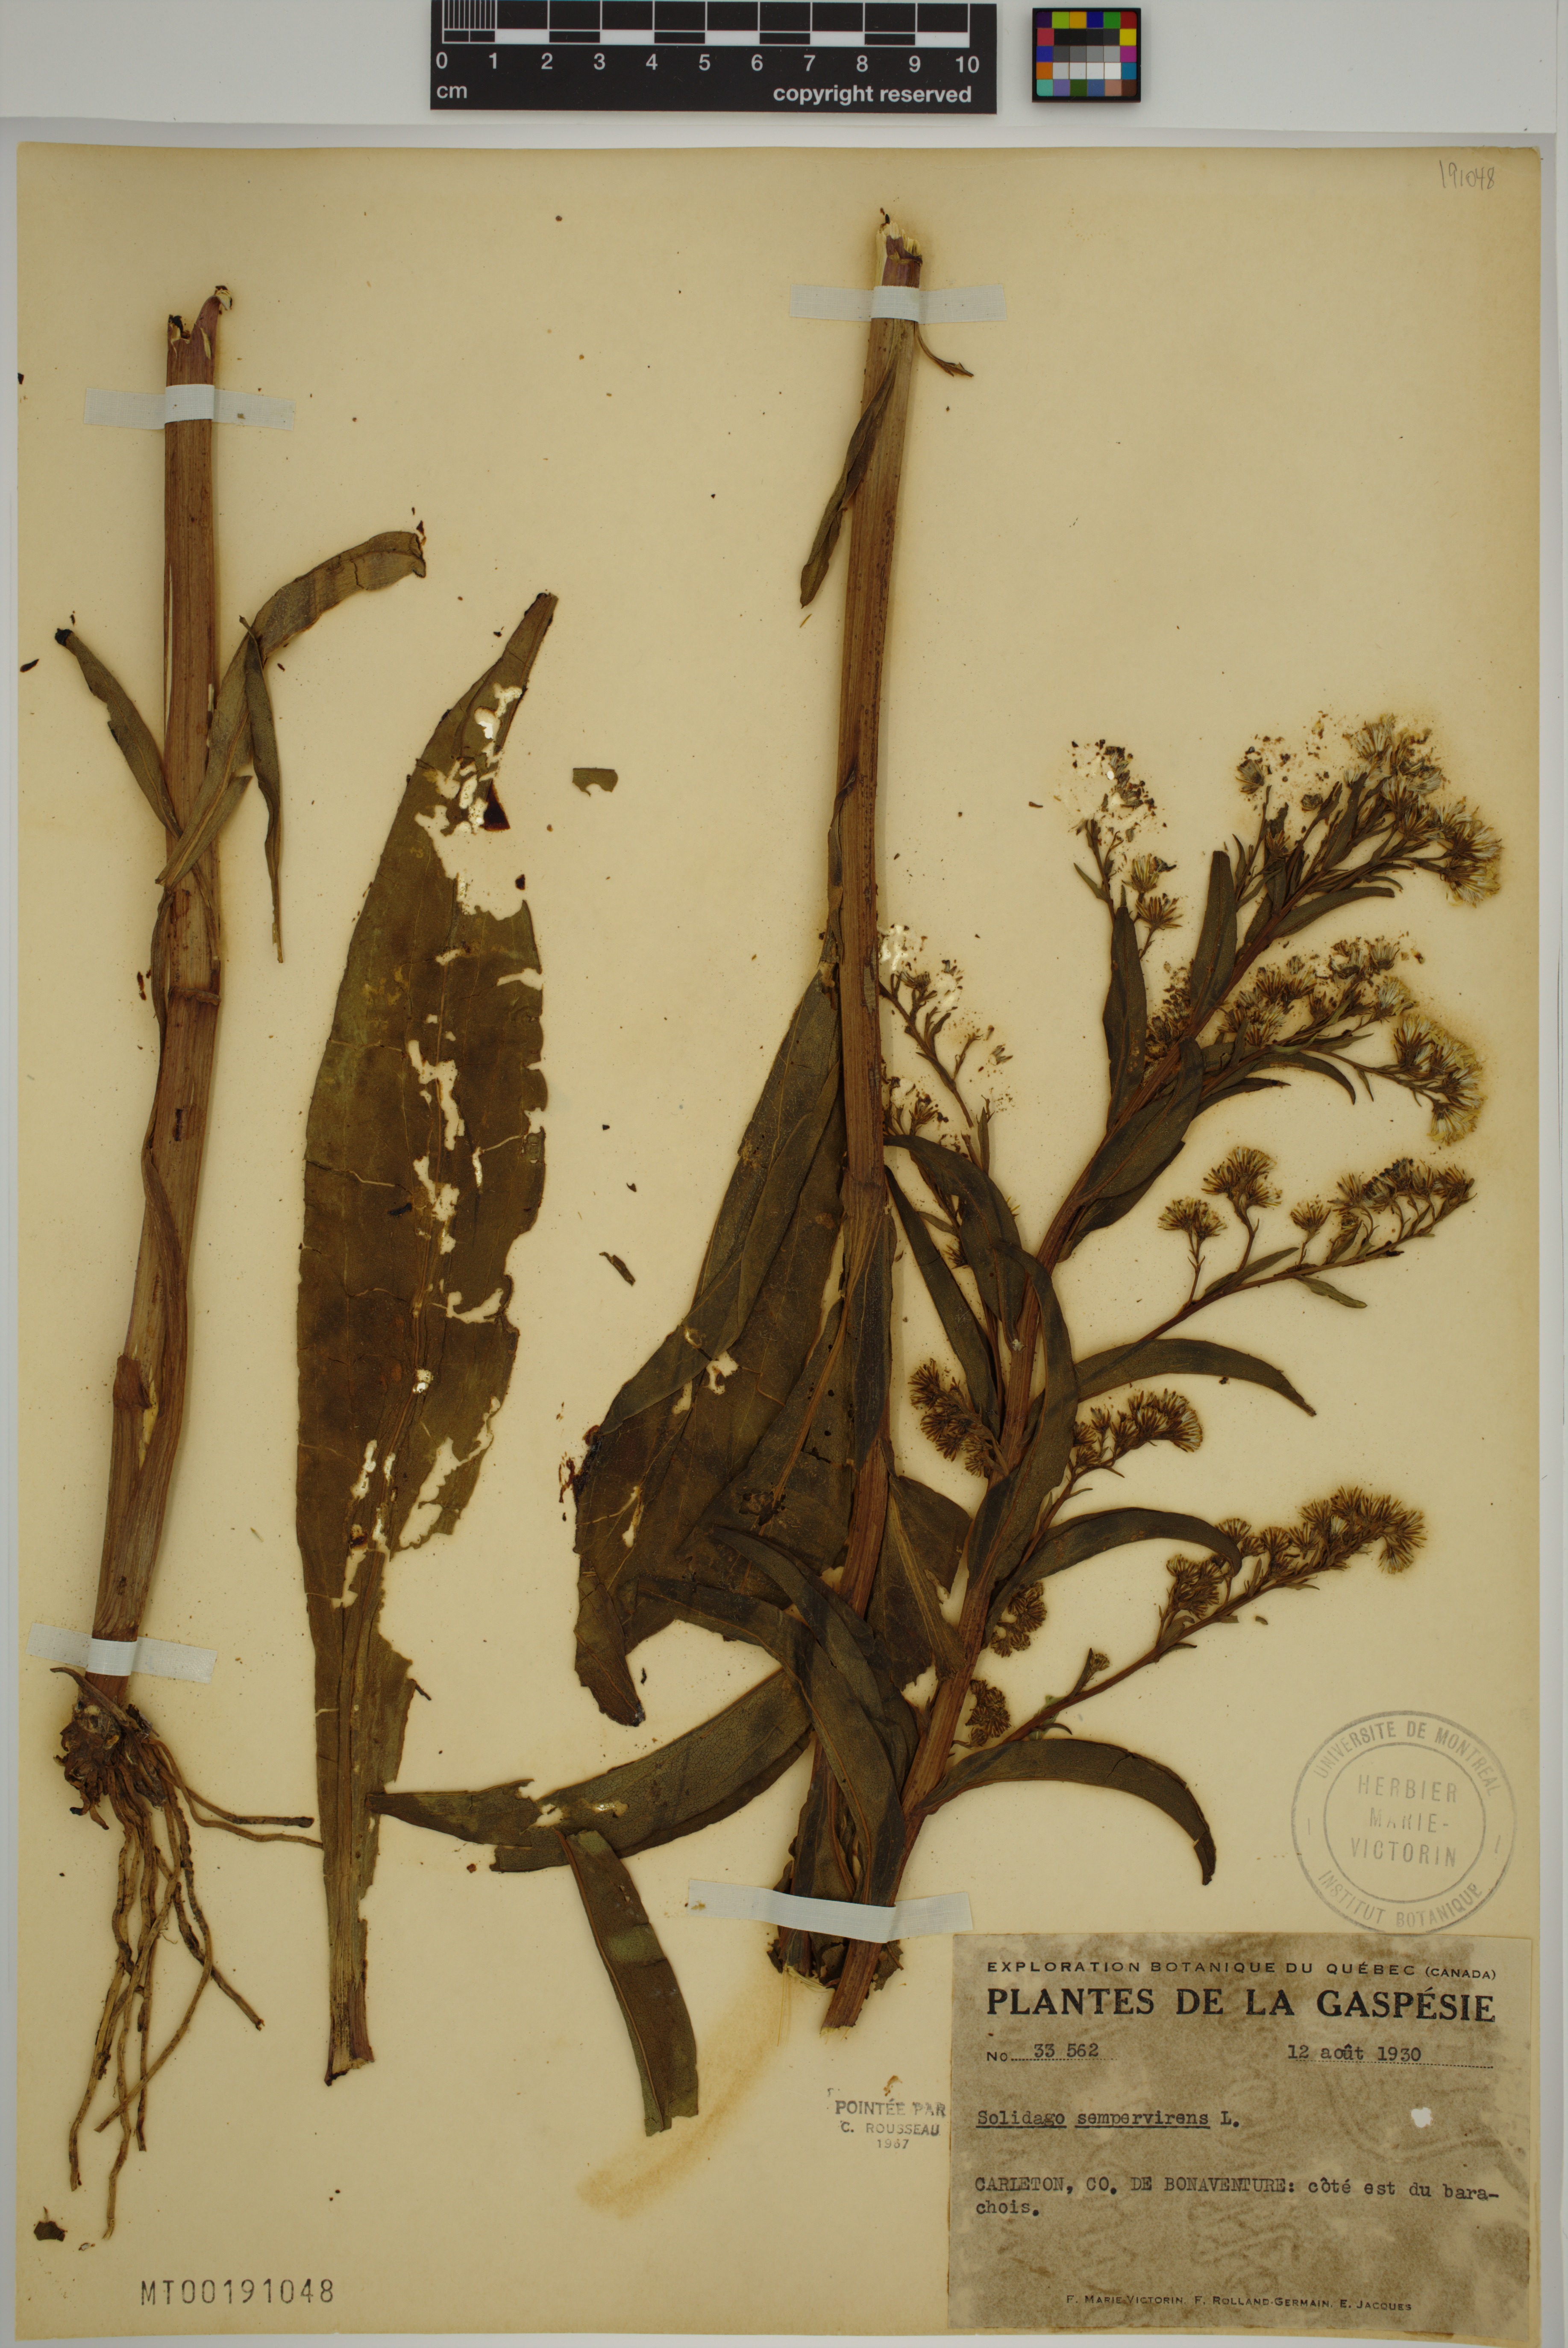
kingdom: Plantae
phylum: Tracheophyta
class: Magnoliopsida
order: Asterales
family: Asteraceae
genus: Solidago
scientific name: Solidago sempervirens
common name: Salt-marsh goldenrod
